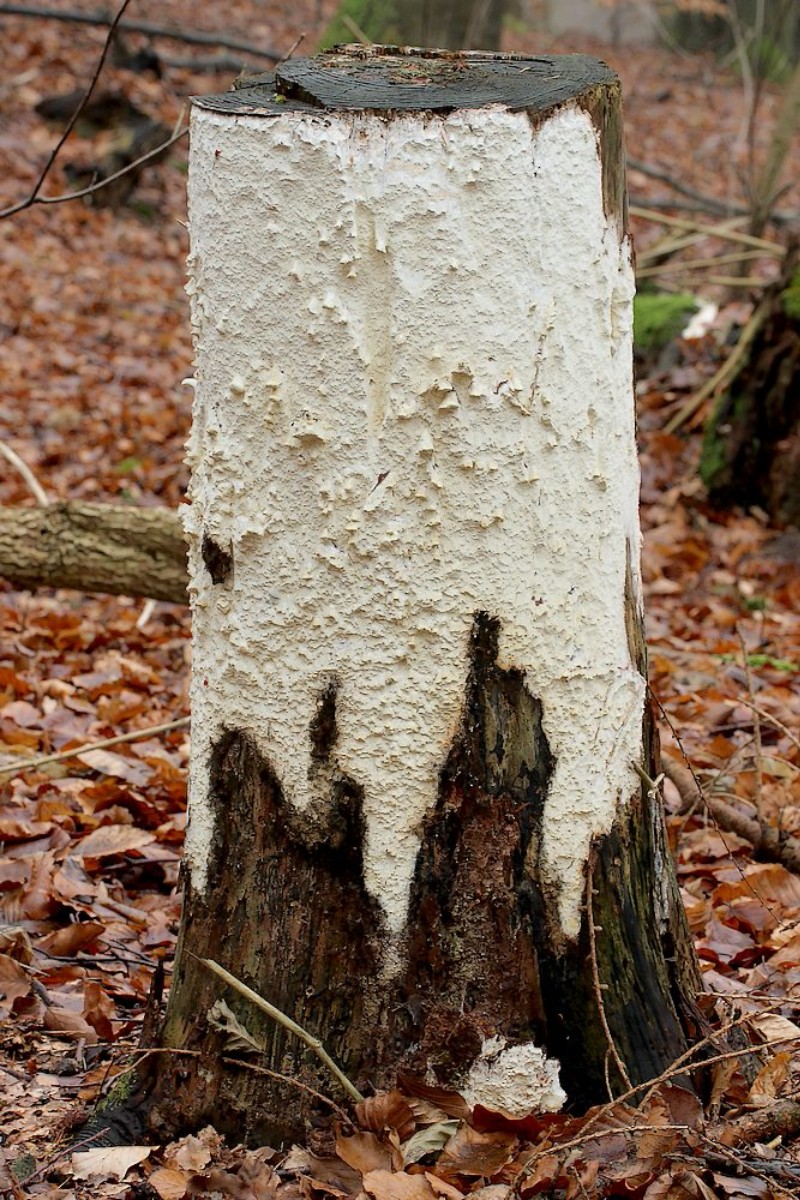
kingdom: Fungi
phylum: Basidiomycota
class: Agaricomycetes
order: Polyporales
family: Fomitopsidaceae
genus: Daedalea
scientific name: Daedalea xantha
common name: gul sejporesvamp
